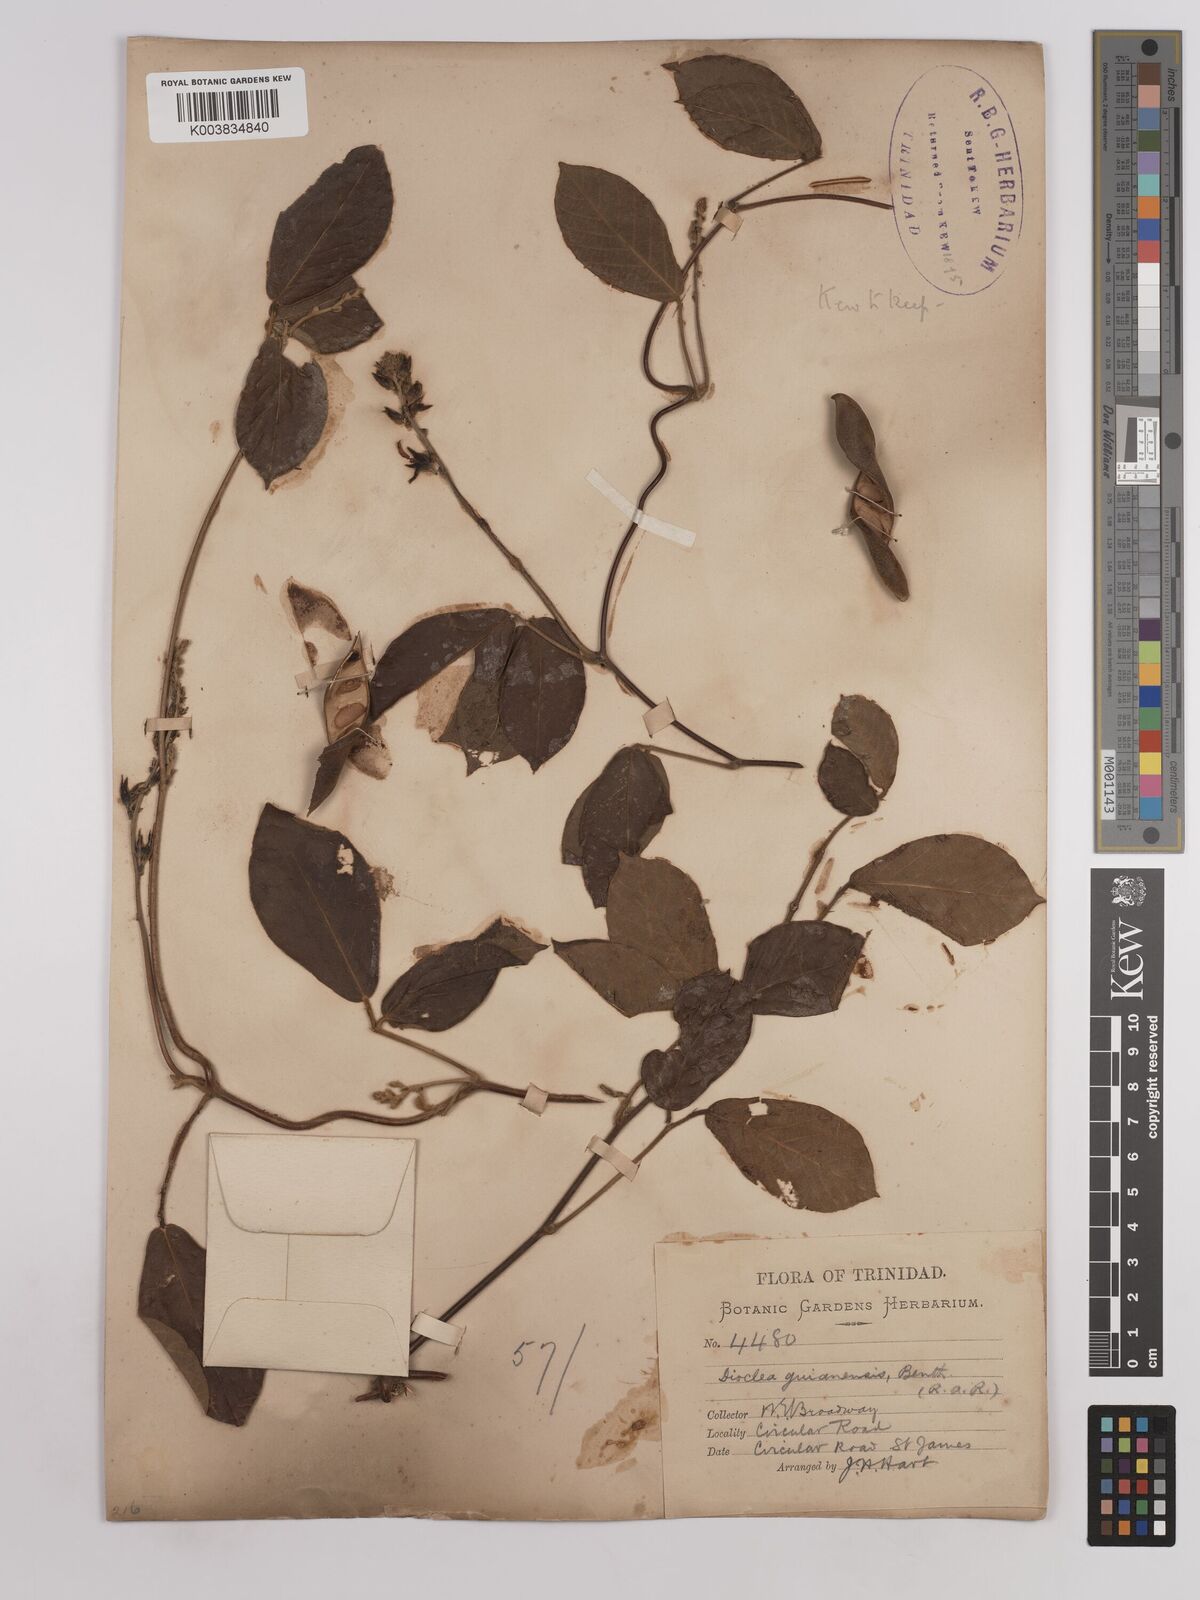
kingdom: Plantae
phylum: Tracheophyta
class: Magnoliopsida
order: Fabales
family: Fabaceae
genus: Dioclea
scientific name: Dioclea guianensis
